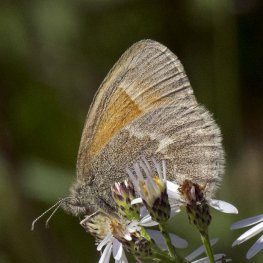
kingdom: Animalia
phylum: Arthropoda
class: Insecta
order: Lepidoptera
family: Nymphalidae
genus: Coenonympha
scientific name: Coenonympha tullia
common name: Large Heath
